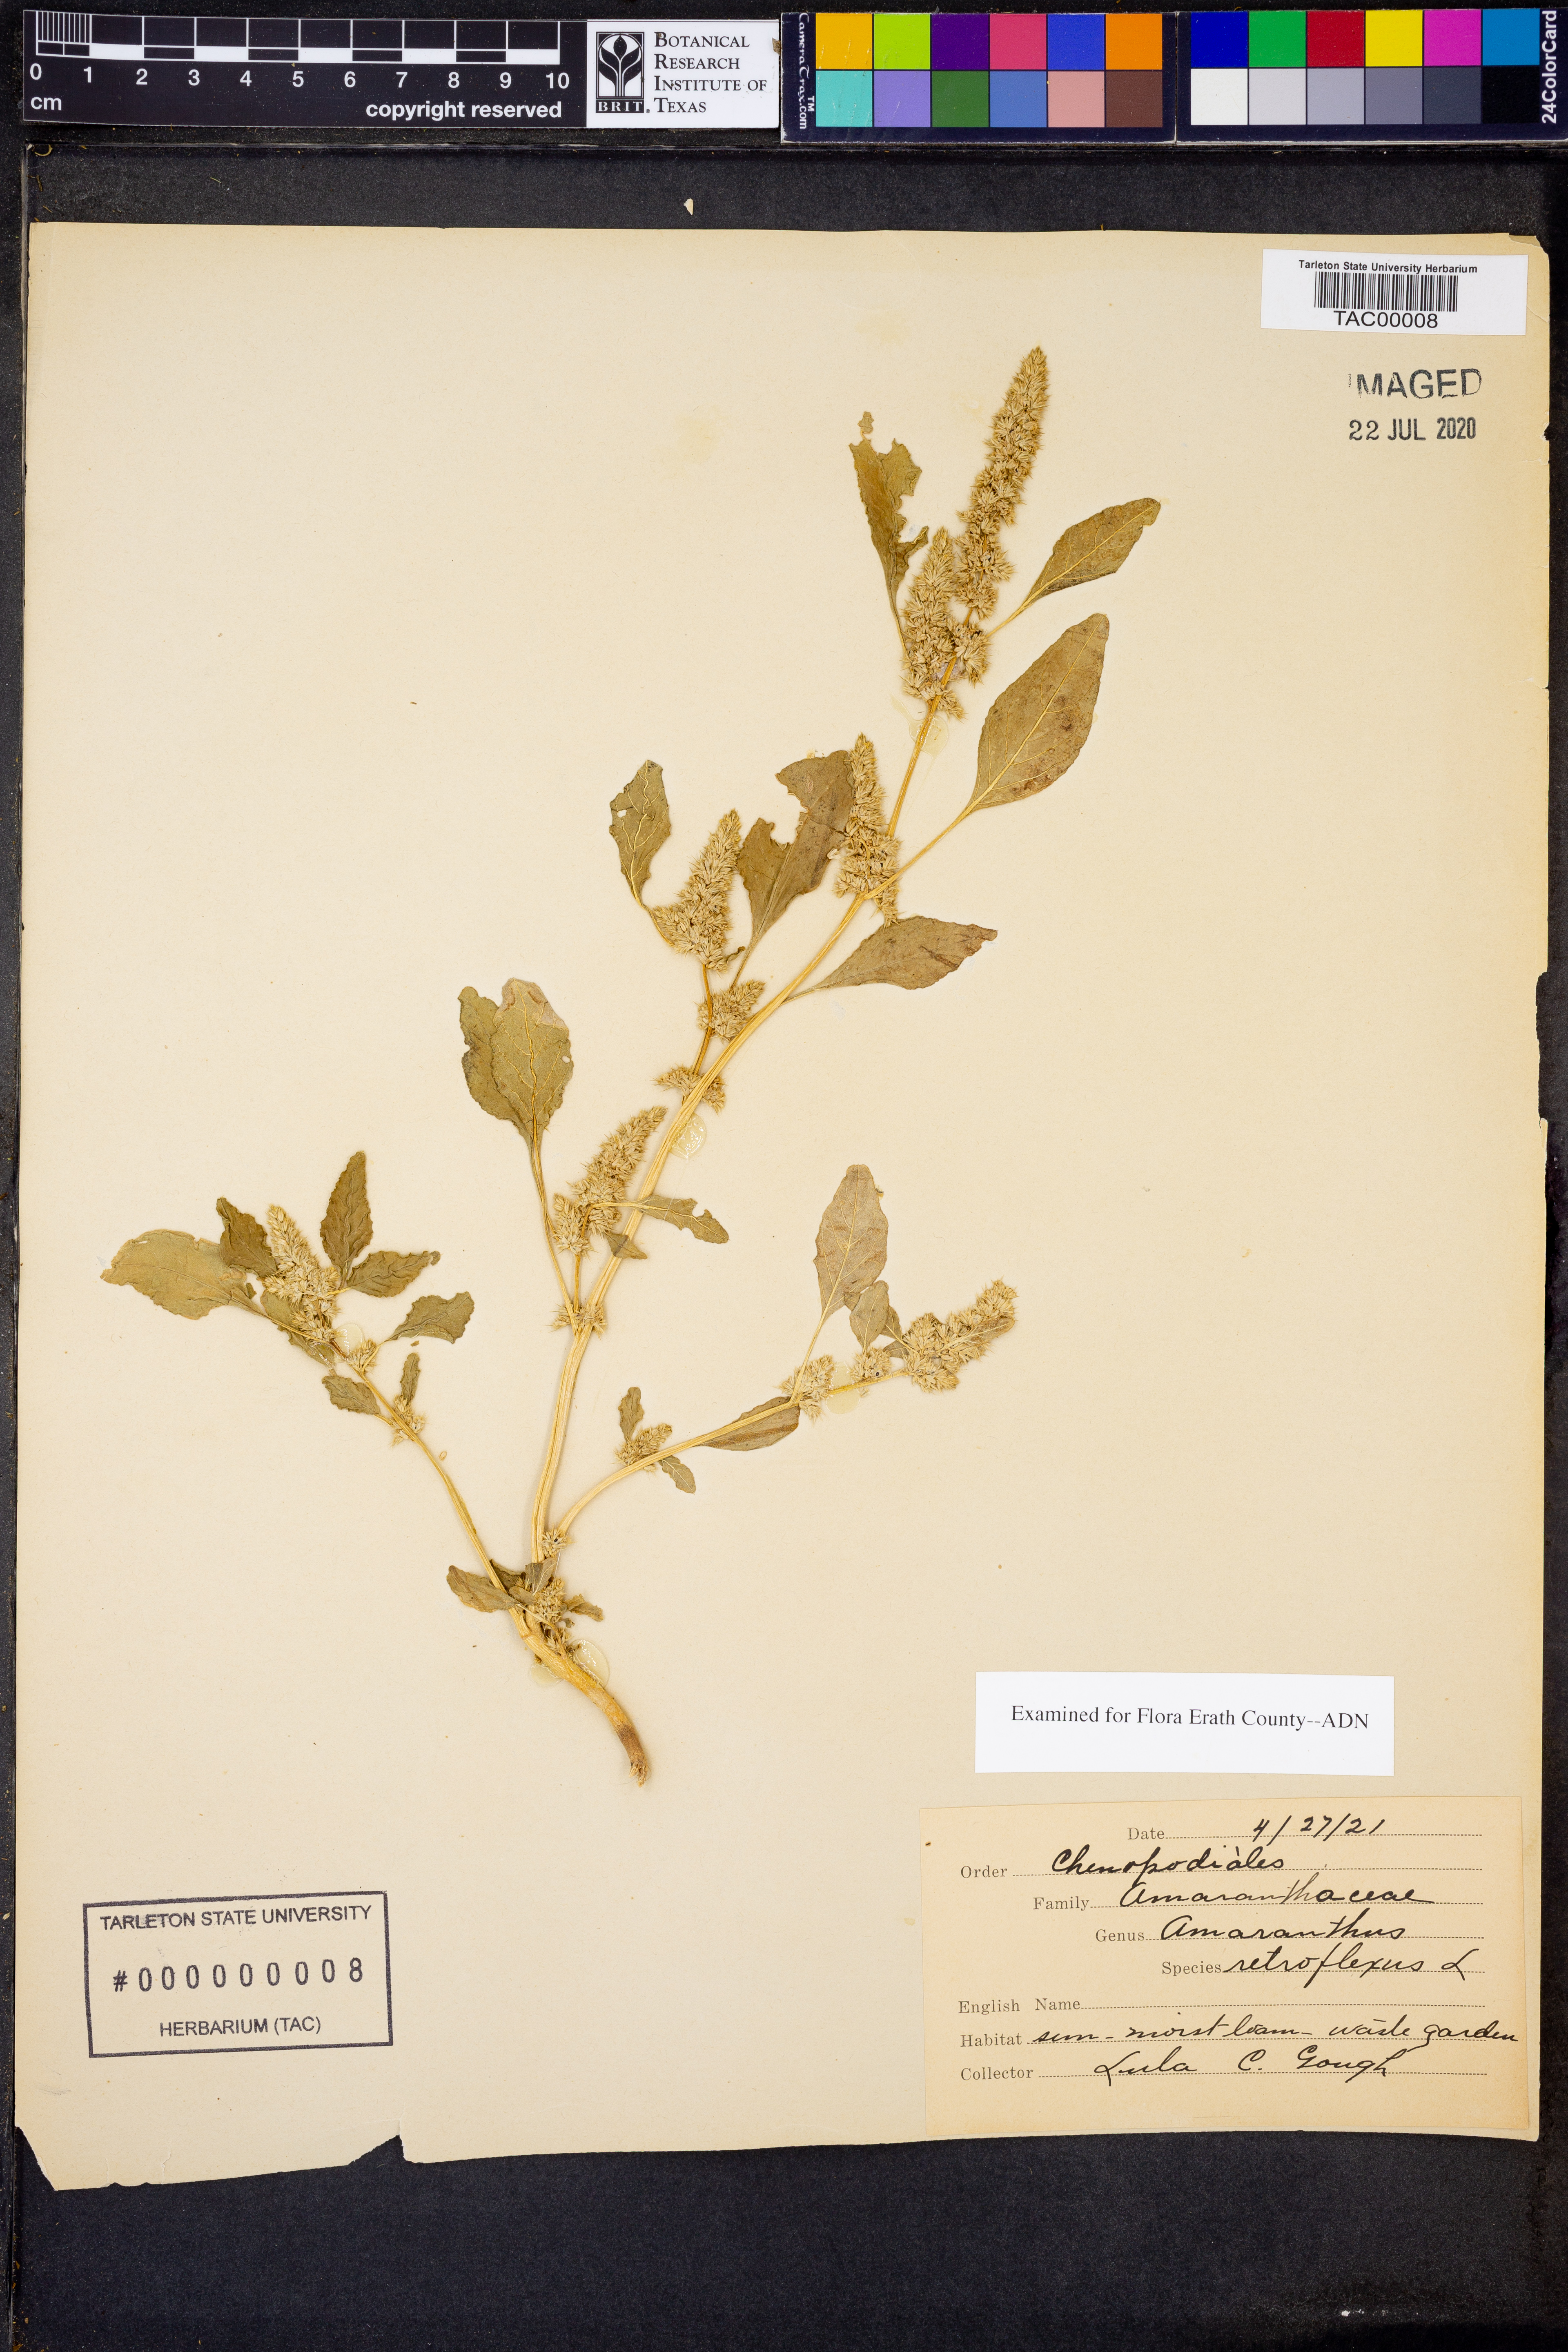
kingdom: Plantae
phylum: Tracheophyta
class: Magnoliopsida
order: Caryophyllales
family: Amaranthaceae
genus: Amaranthus
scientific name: Amaranthus retroflexus
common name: Redroot amaranth
